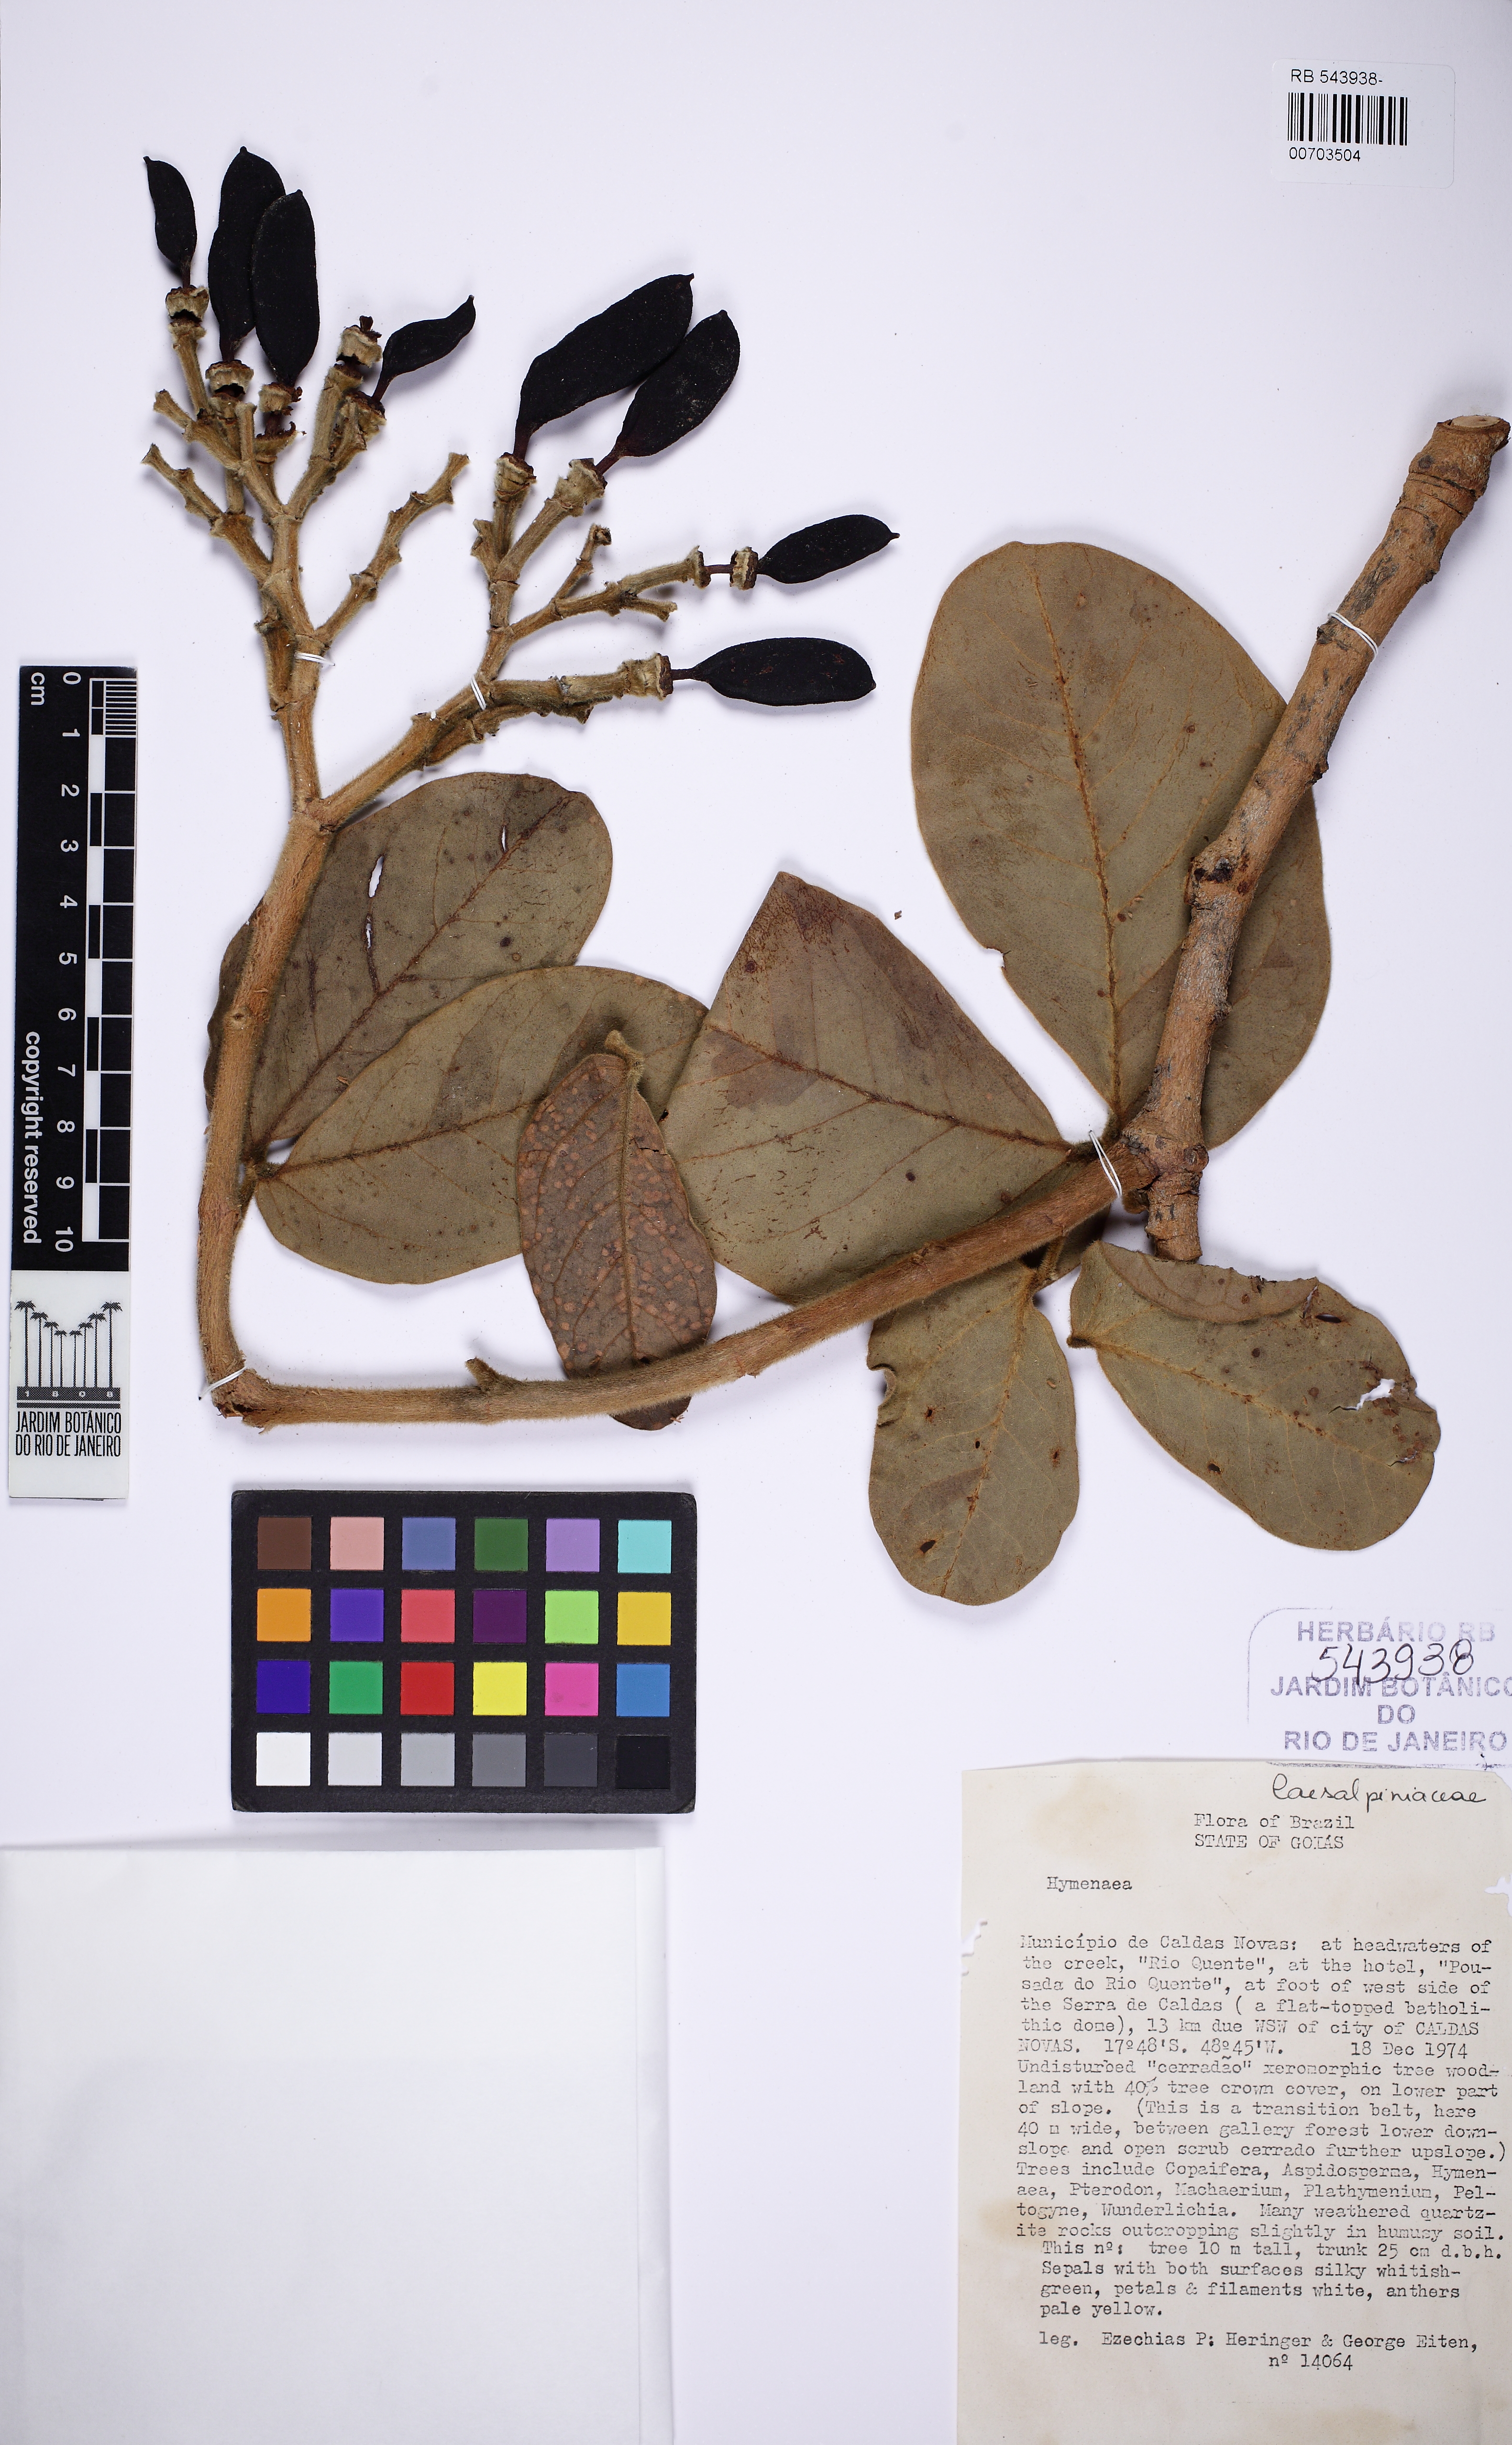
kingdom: Plantae
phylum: Tracheophyta
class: Magnoliopsida
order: Fabales
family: Fabaceae
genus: Hymenaea
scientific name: Hymenaea stigonocarpa
